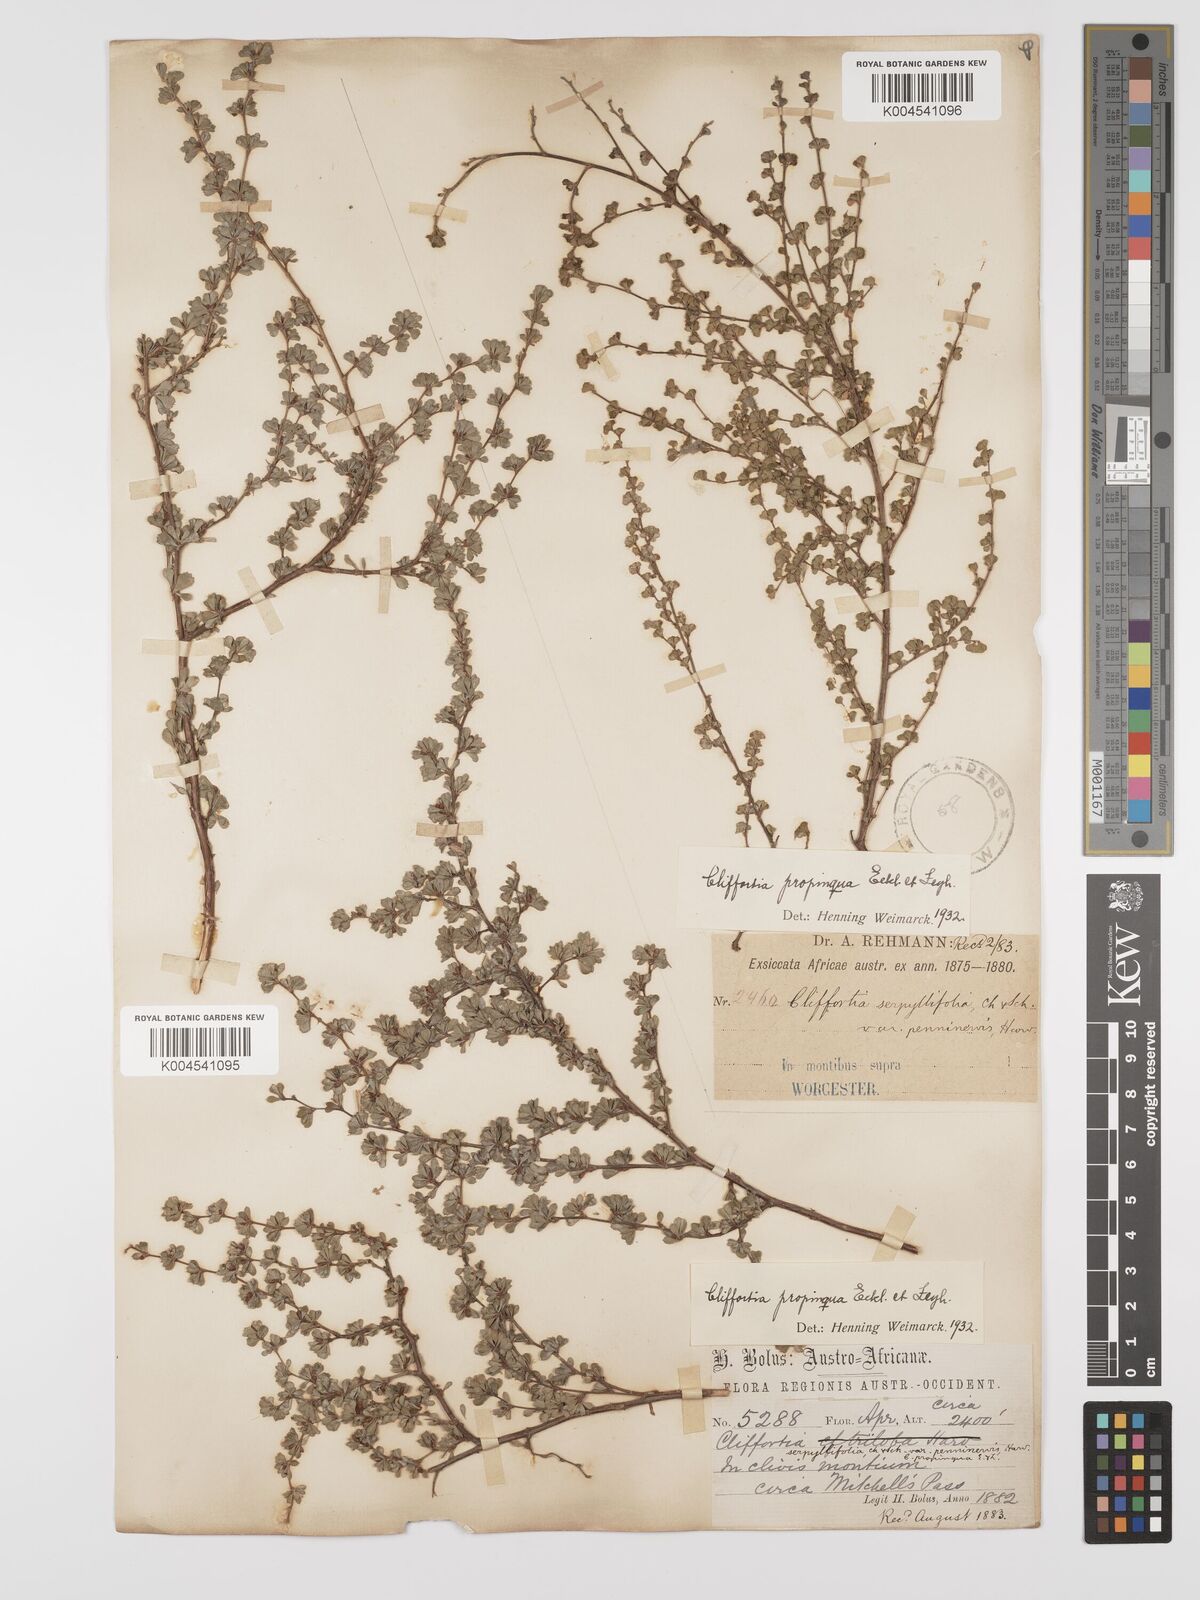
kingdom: Plantae
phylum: Tracheophyta
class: Magnoliopsida
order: Rosales
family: Rosaceae
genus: Cliffortia
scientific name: Cliffortia propinqua
